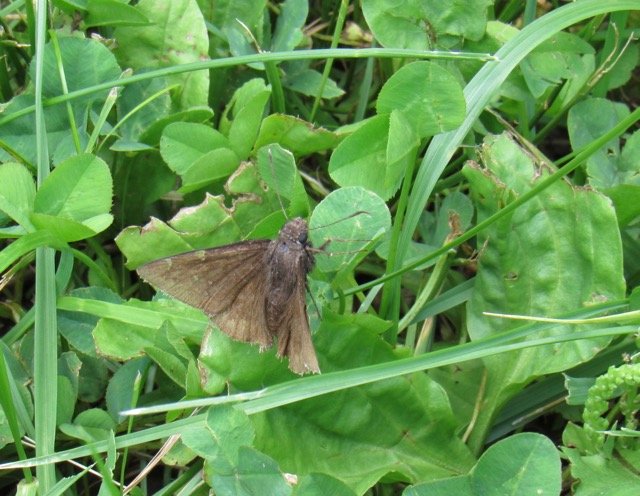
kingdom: Animalia
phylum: Arthropoda
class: Insecta
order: Lepidoptera
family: Hesperiidae
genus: Autochton
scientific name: Autochton
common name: Northern Cloudywing
